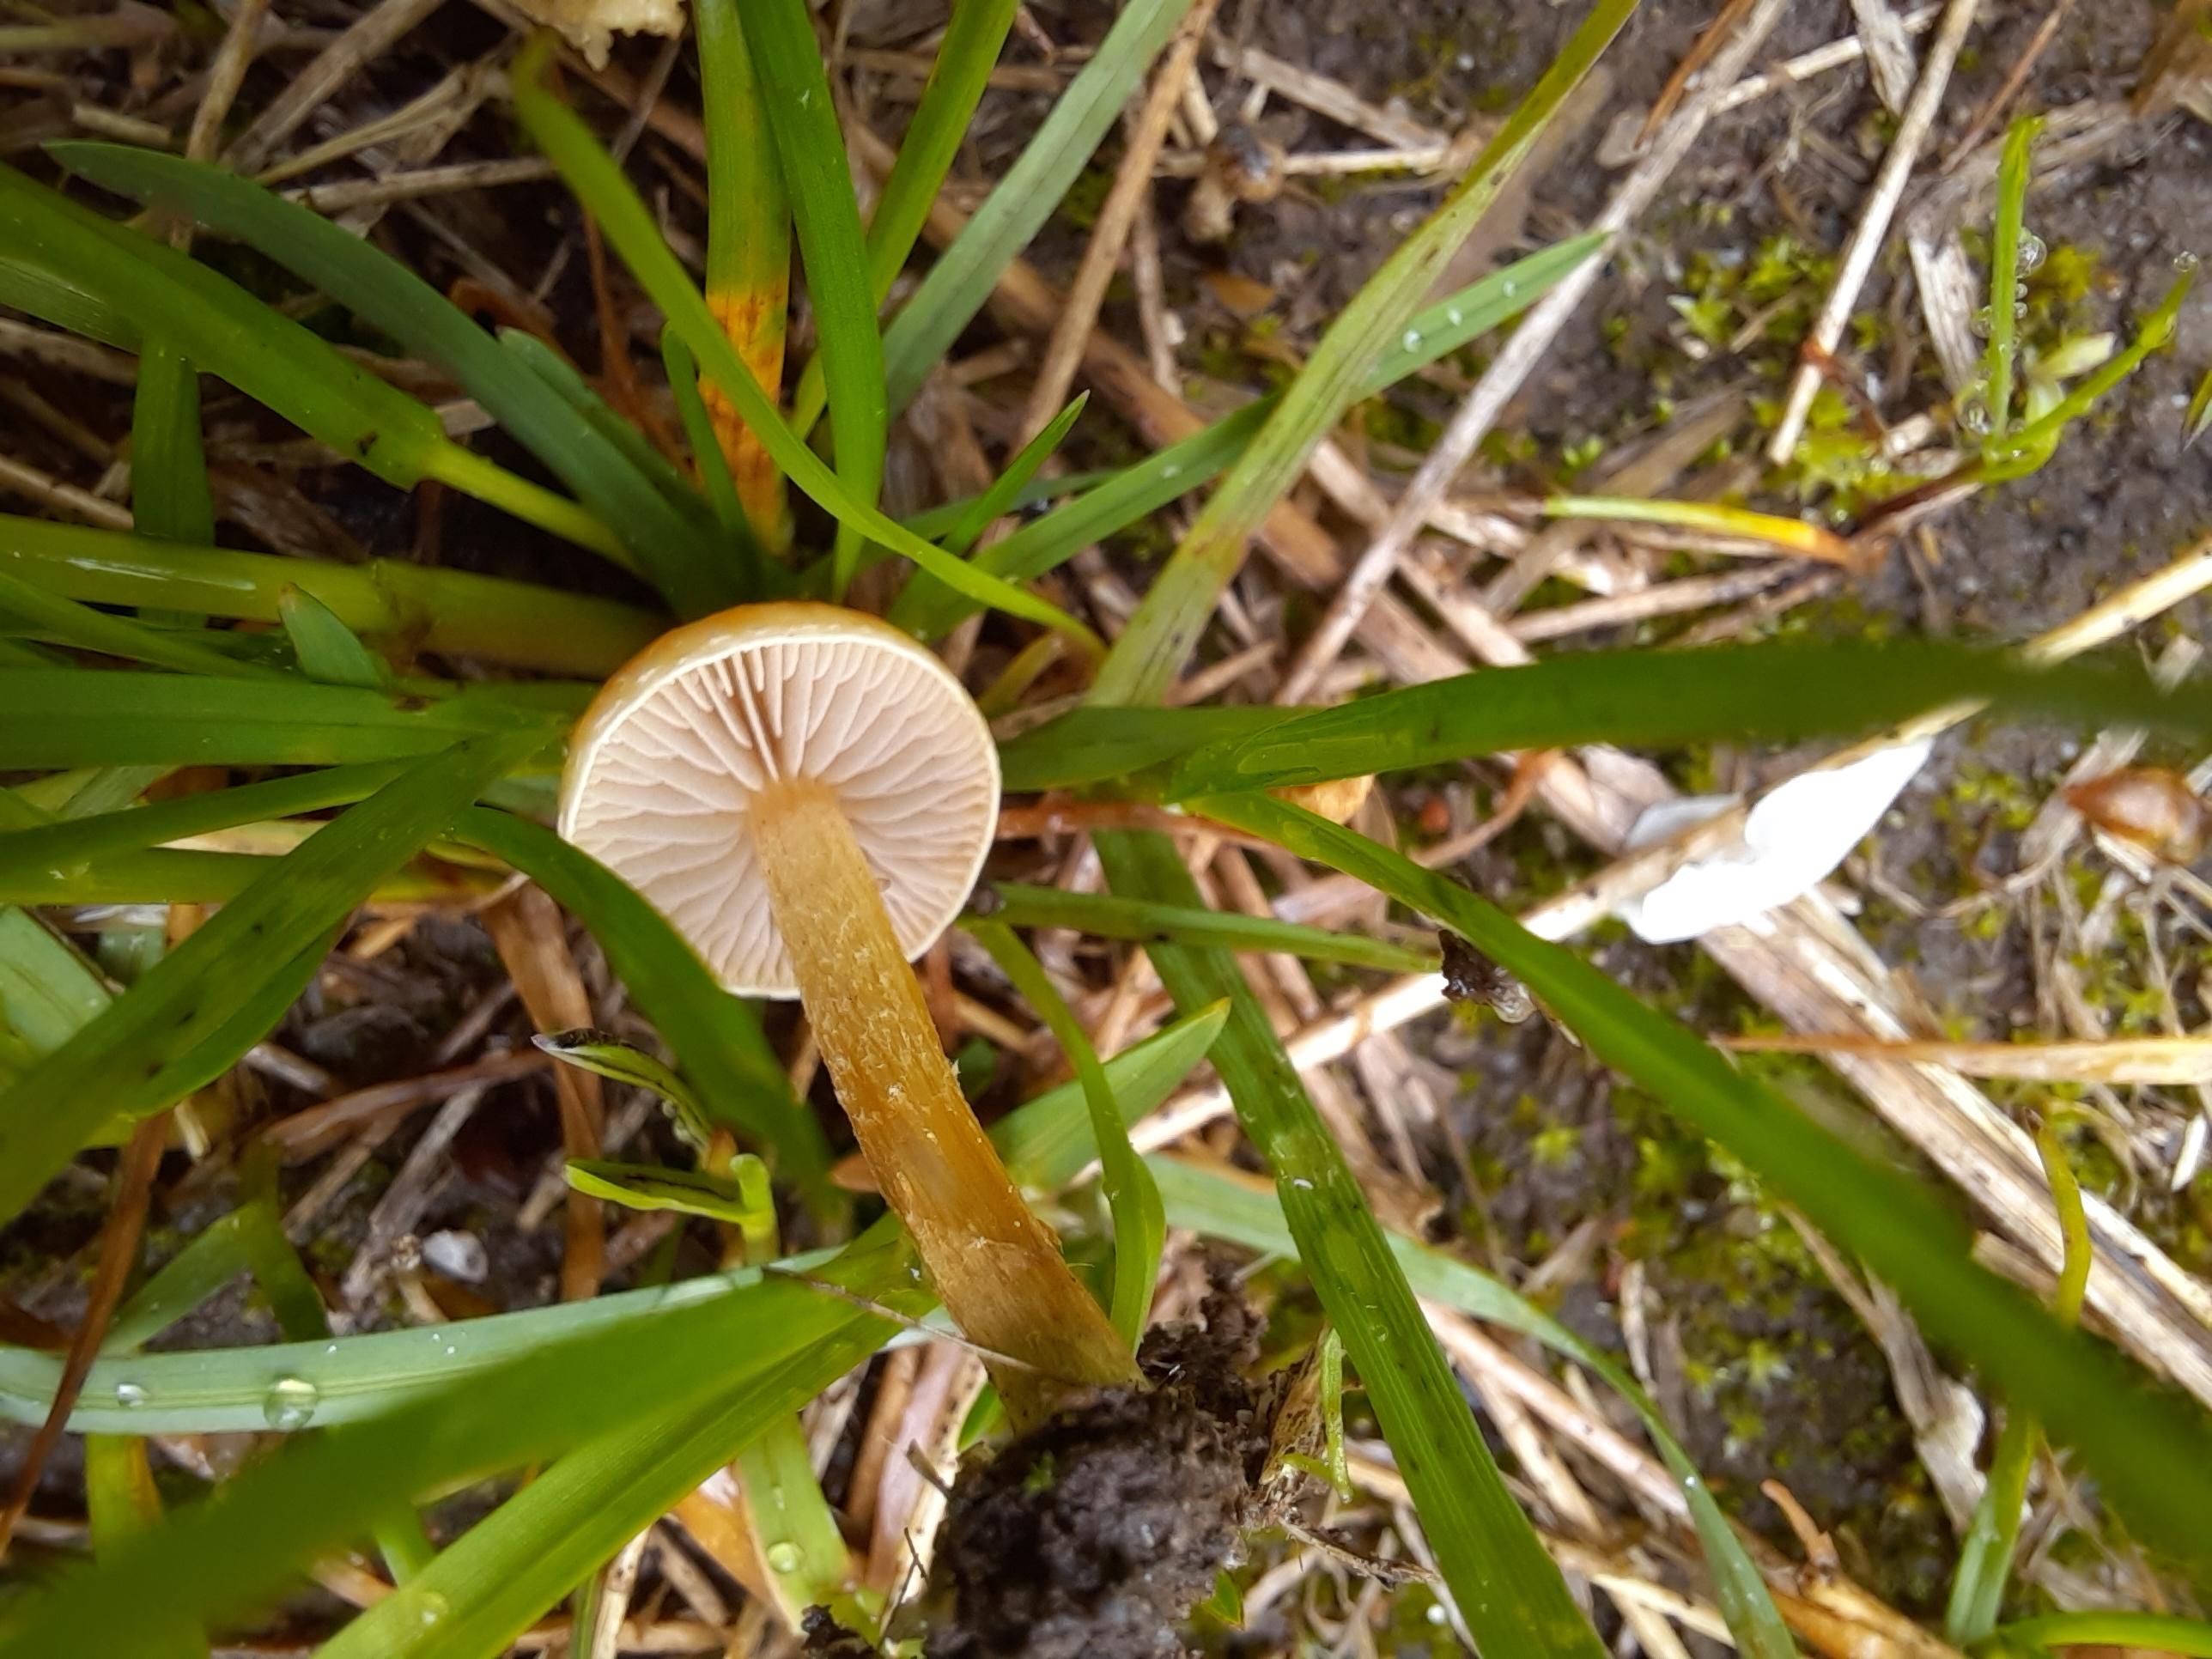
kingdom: Fungi
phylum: Basidiomycota
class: Agaricomycetes
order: Agaricales
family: Strophariaceae
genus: Agrocybe
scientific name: Agrocybe pediades
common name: almindelig agerhat
